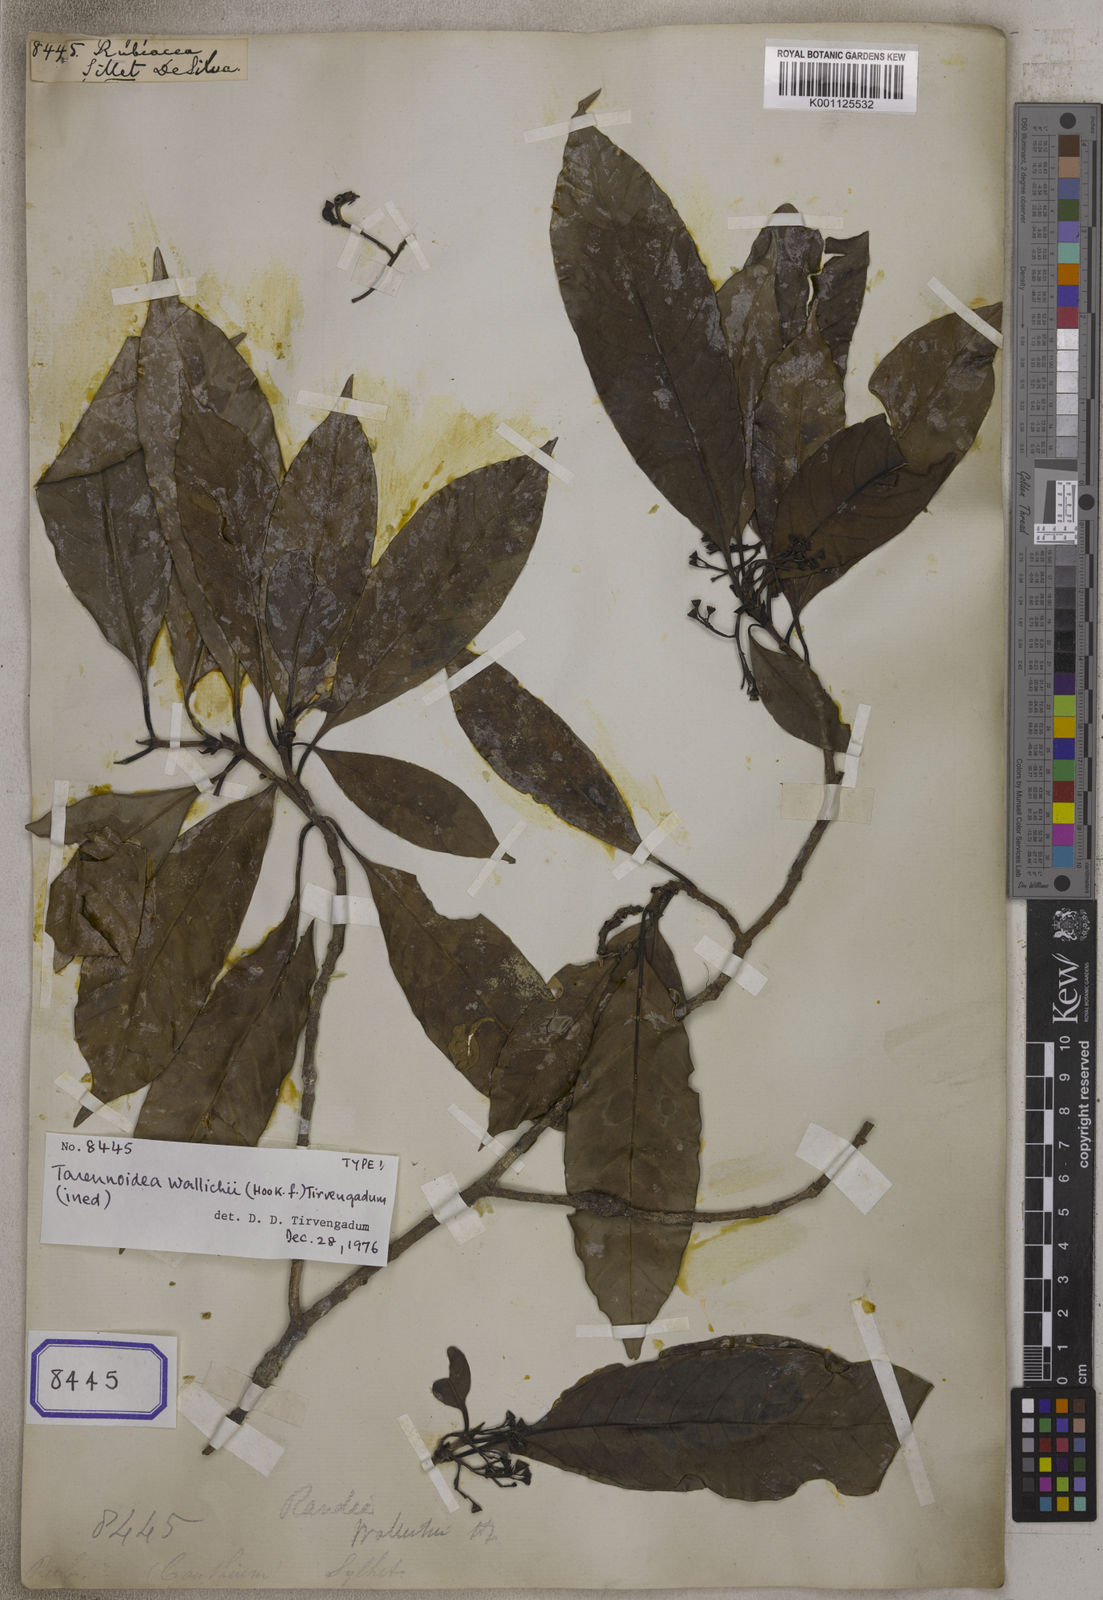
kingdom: Plantae
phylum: Tracheophyta
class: Magnoliopsida
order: Gentianales
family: Rubiaceae
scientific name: Rubiaceae
